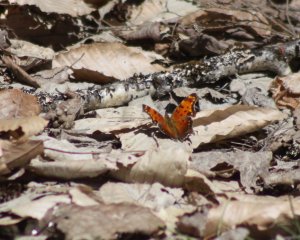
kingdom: Animalia
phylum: Arthropoda
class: Insecta
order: Lepidoptera
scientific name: Lepidoptera
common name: Butterflies
